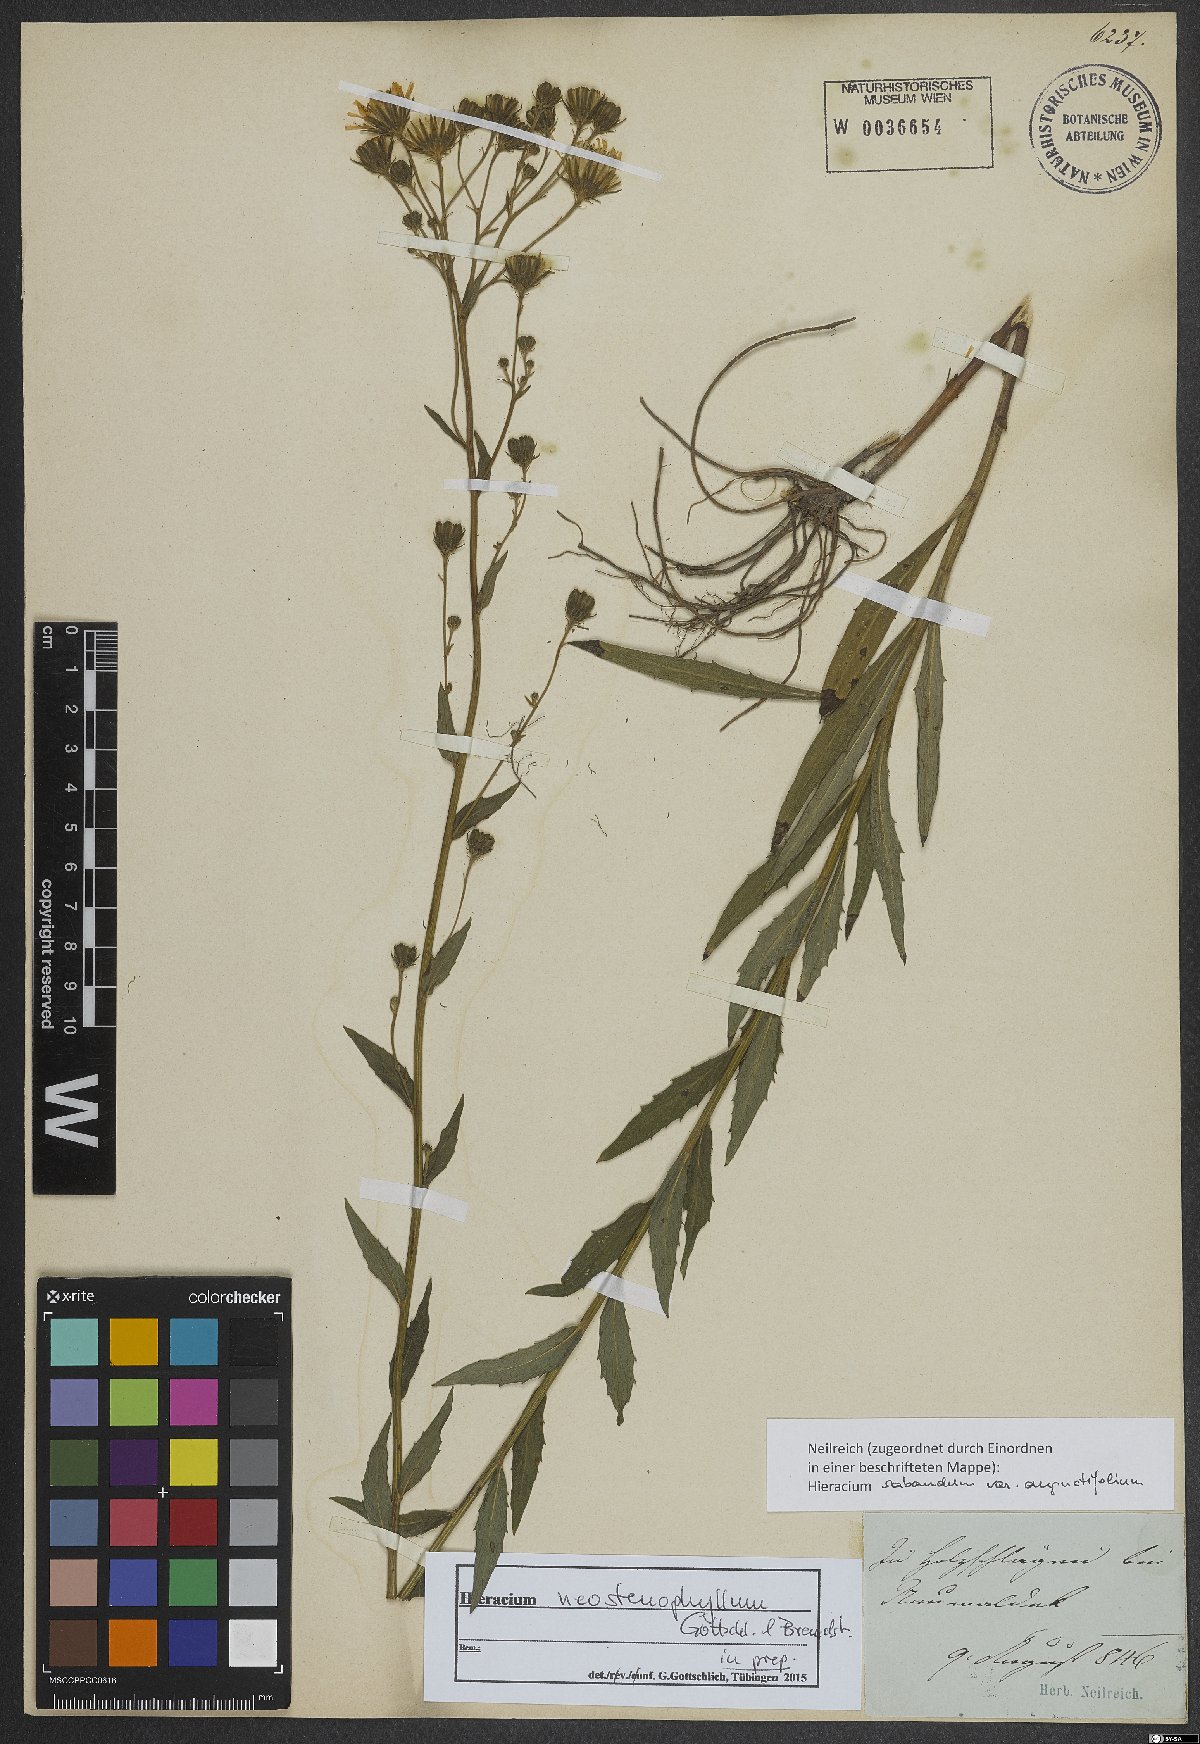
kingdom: Plantae
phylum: Tracheophyta
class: Magnoliopsida
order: Asterales
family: Asteraceae
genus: Hieracium
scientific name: Hieracium neostenophyllum
